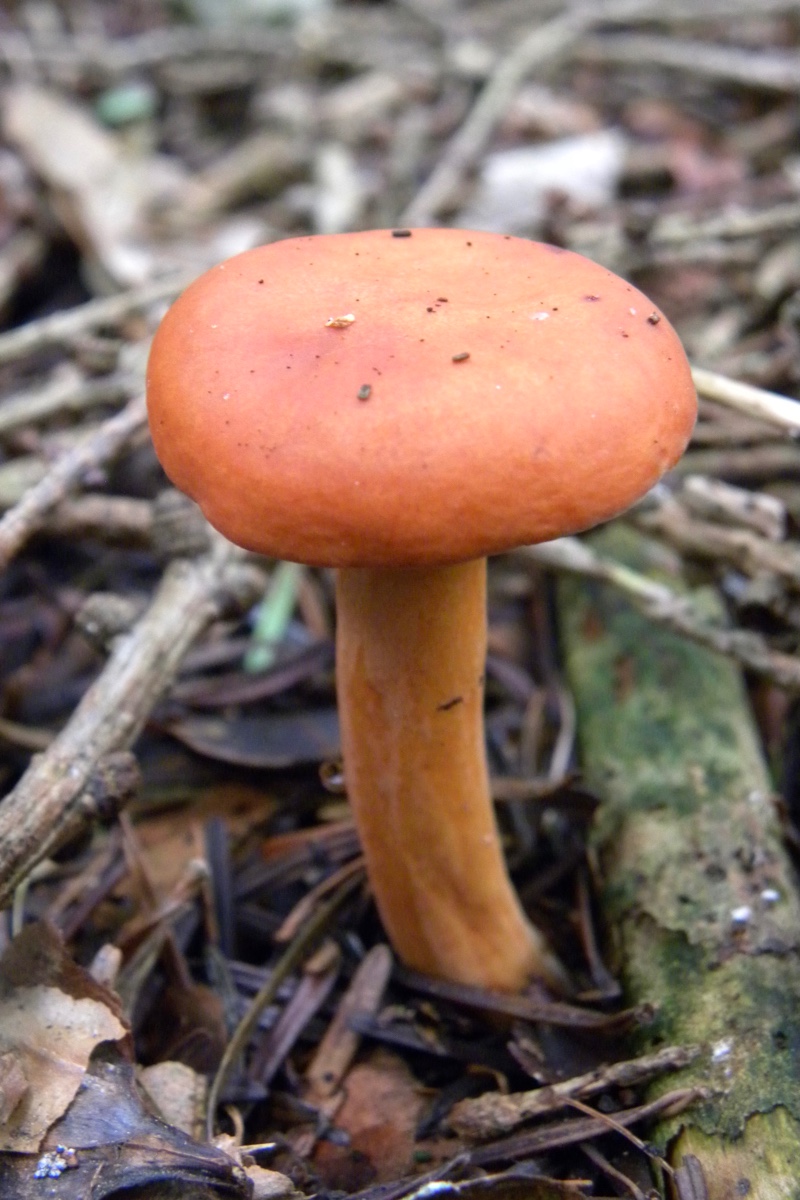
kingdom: Fungi
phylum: Basidiomycota
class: Agaricomycetes
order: Russulales
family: Russulaceae
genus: Lactarius
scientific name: Lactarius aurantiacus
